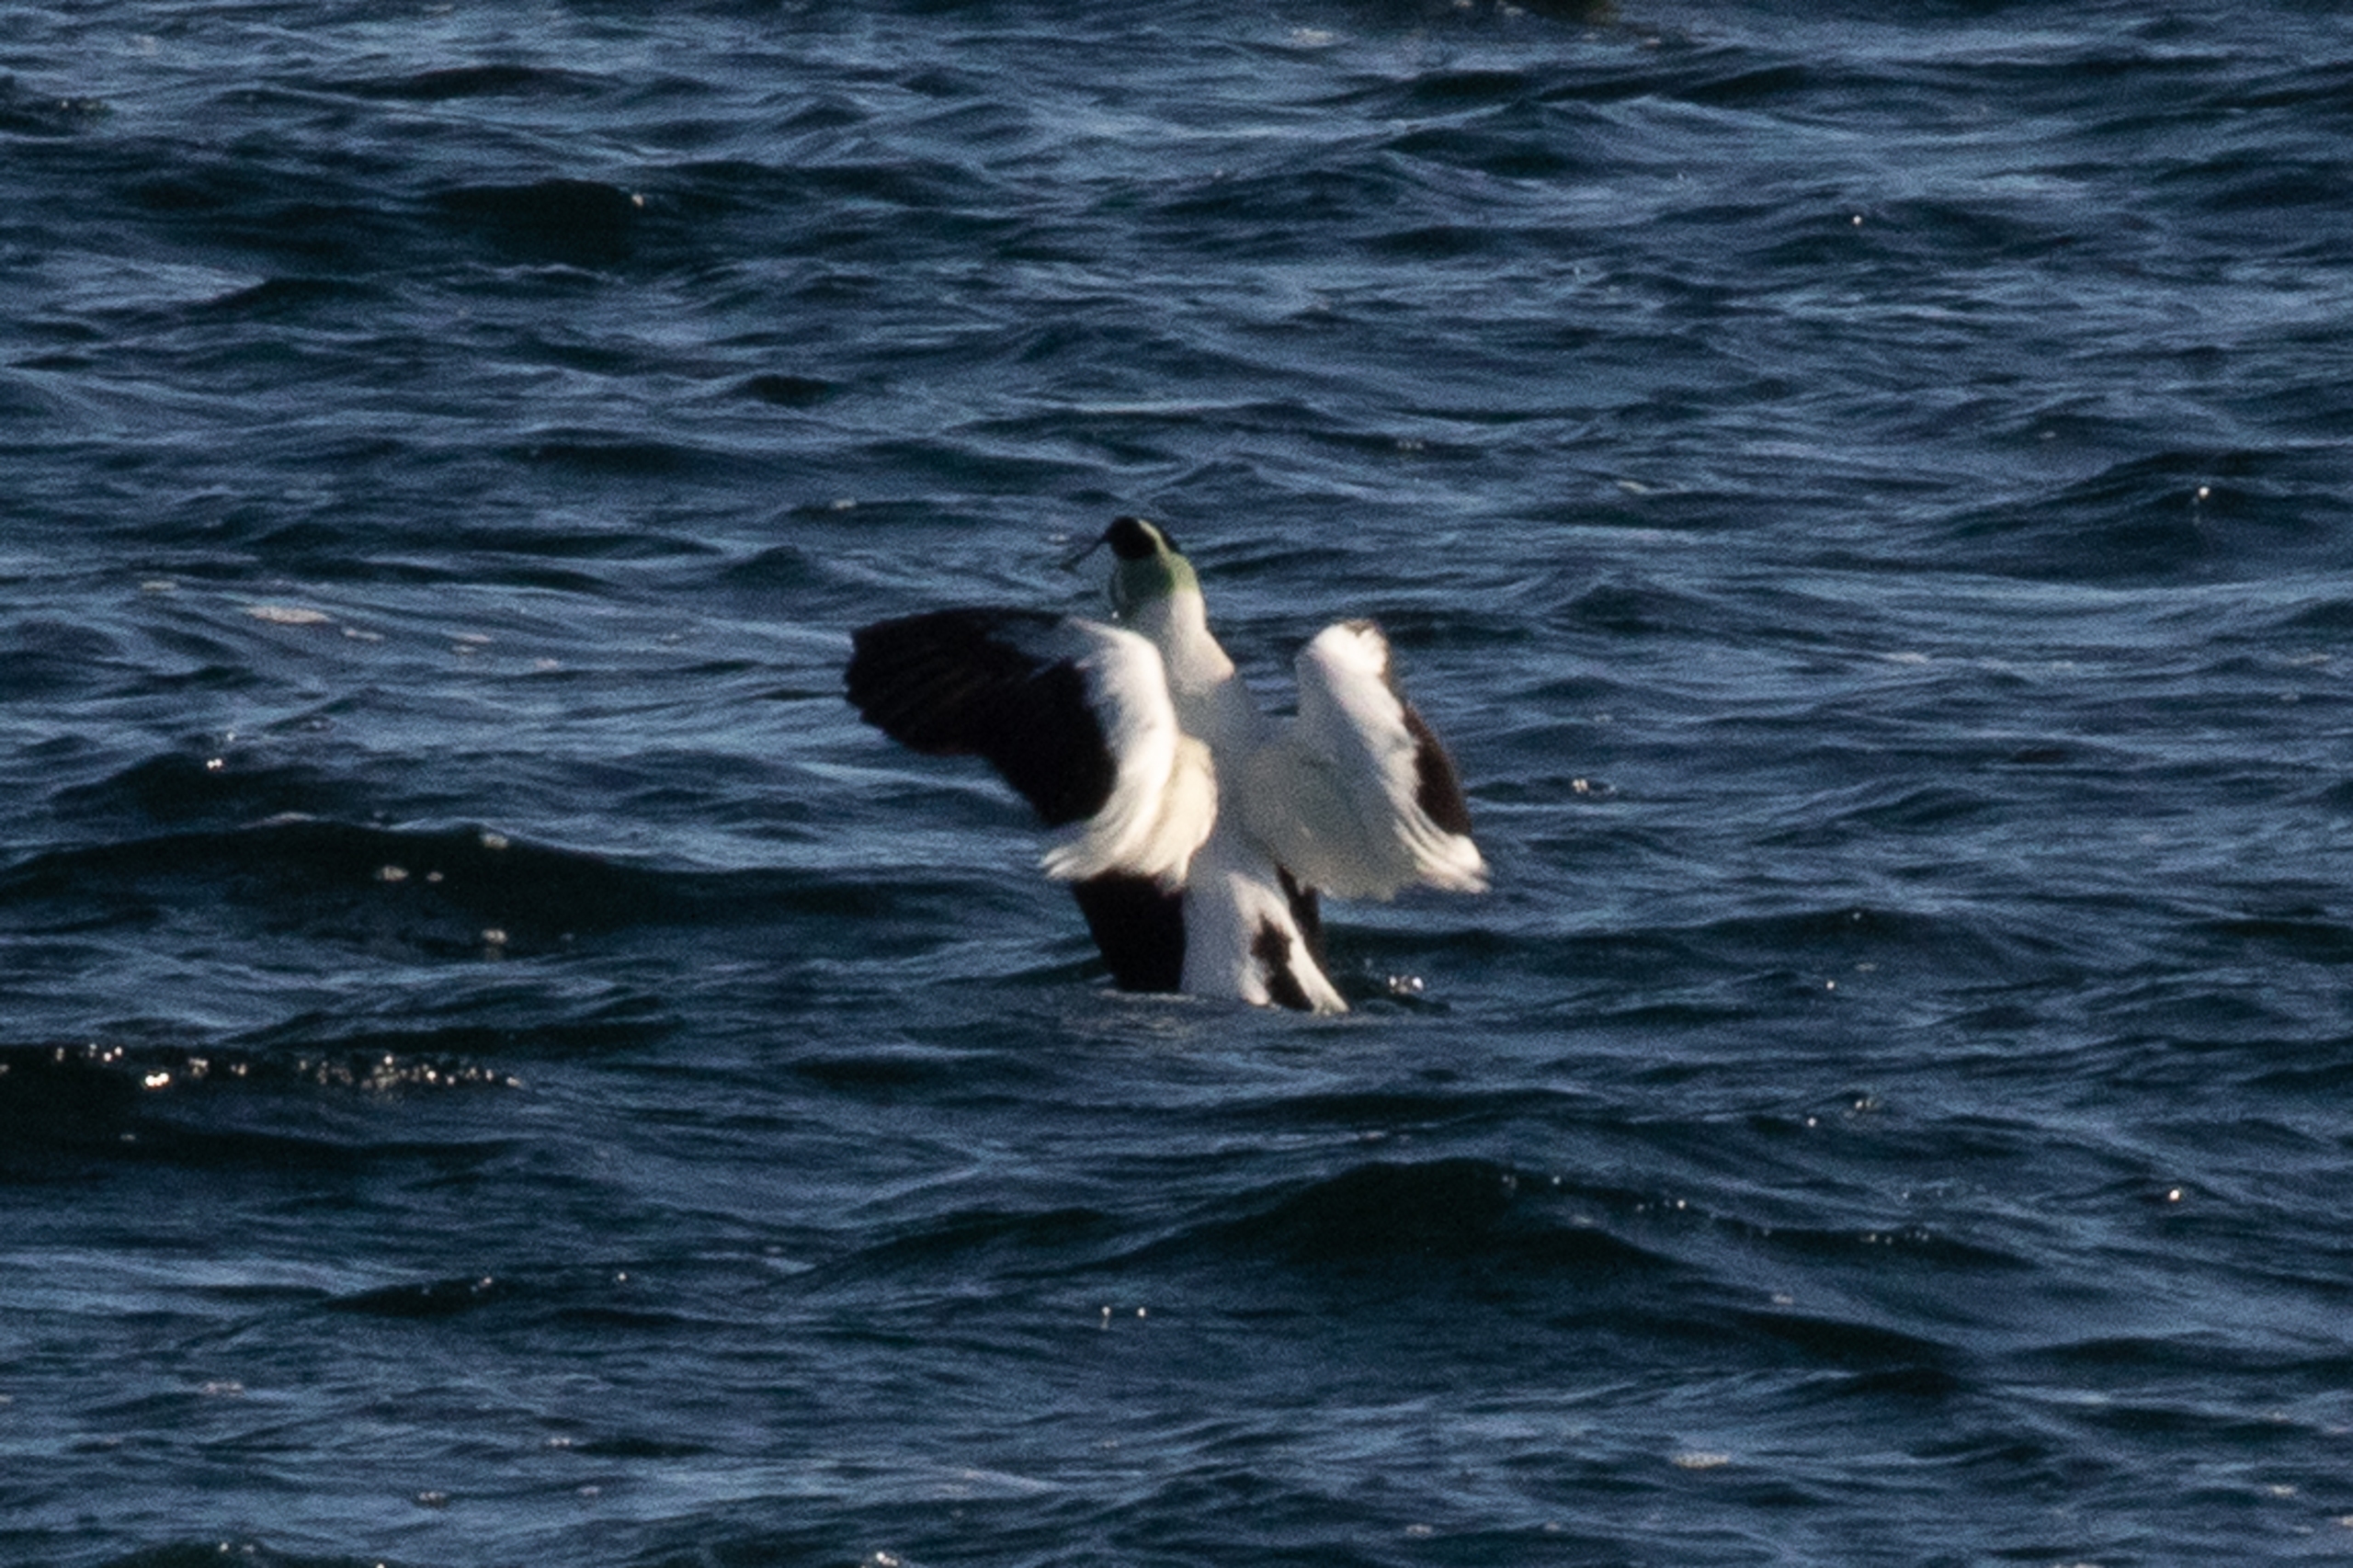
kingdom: Animalia
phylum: Chordata
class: Aves
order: Anseriformes
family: Anatidae
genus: Somateria
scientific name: Somateria mollissima
